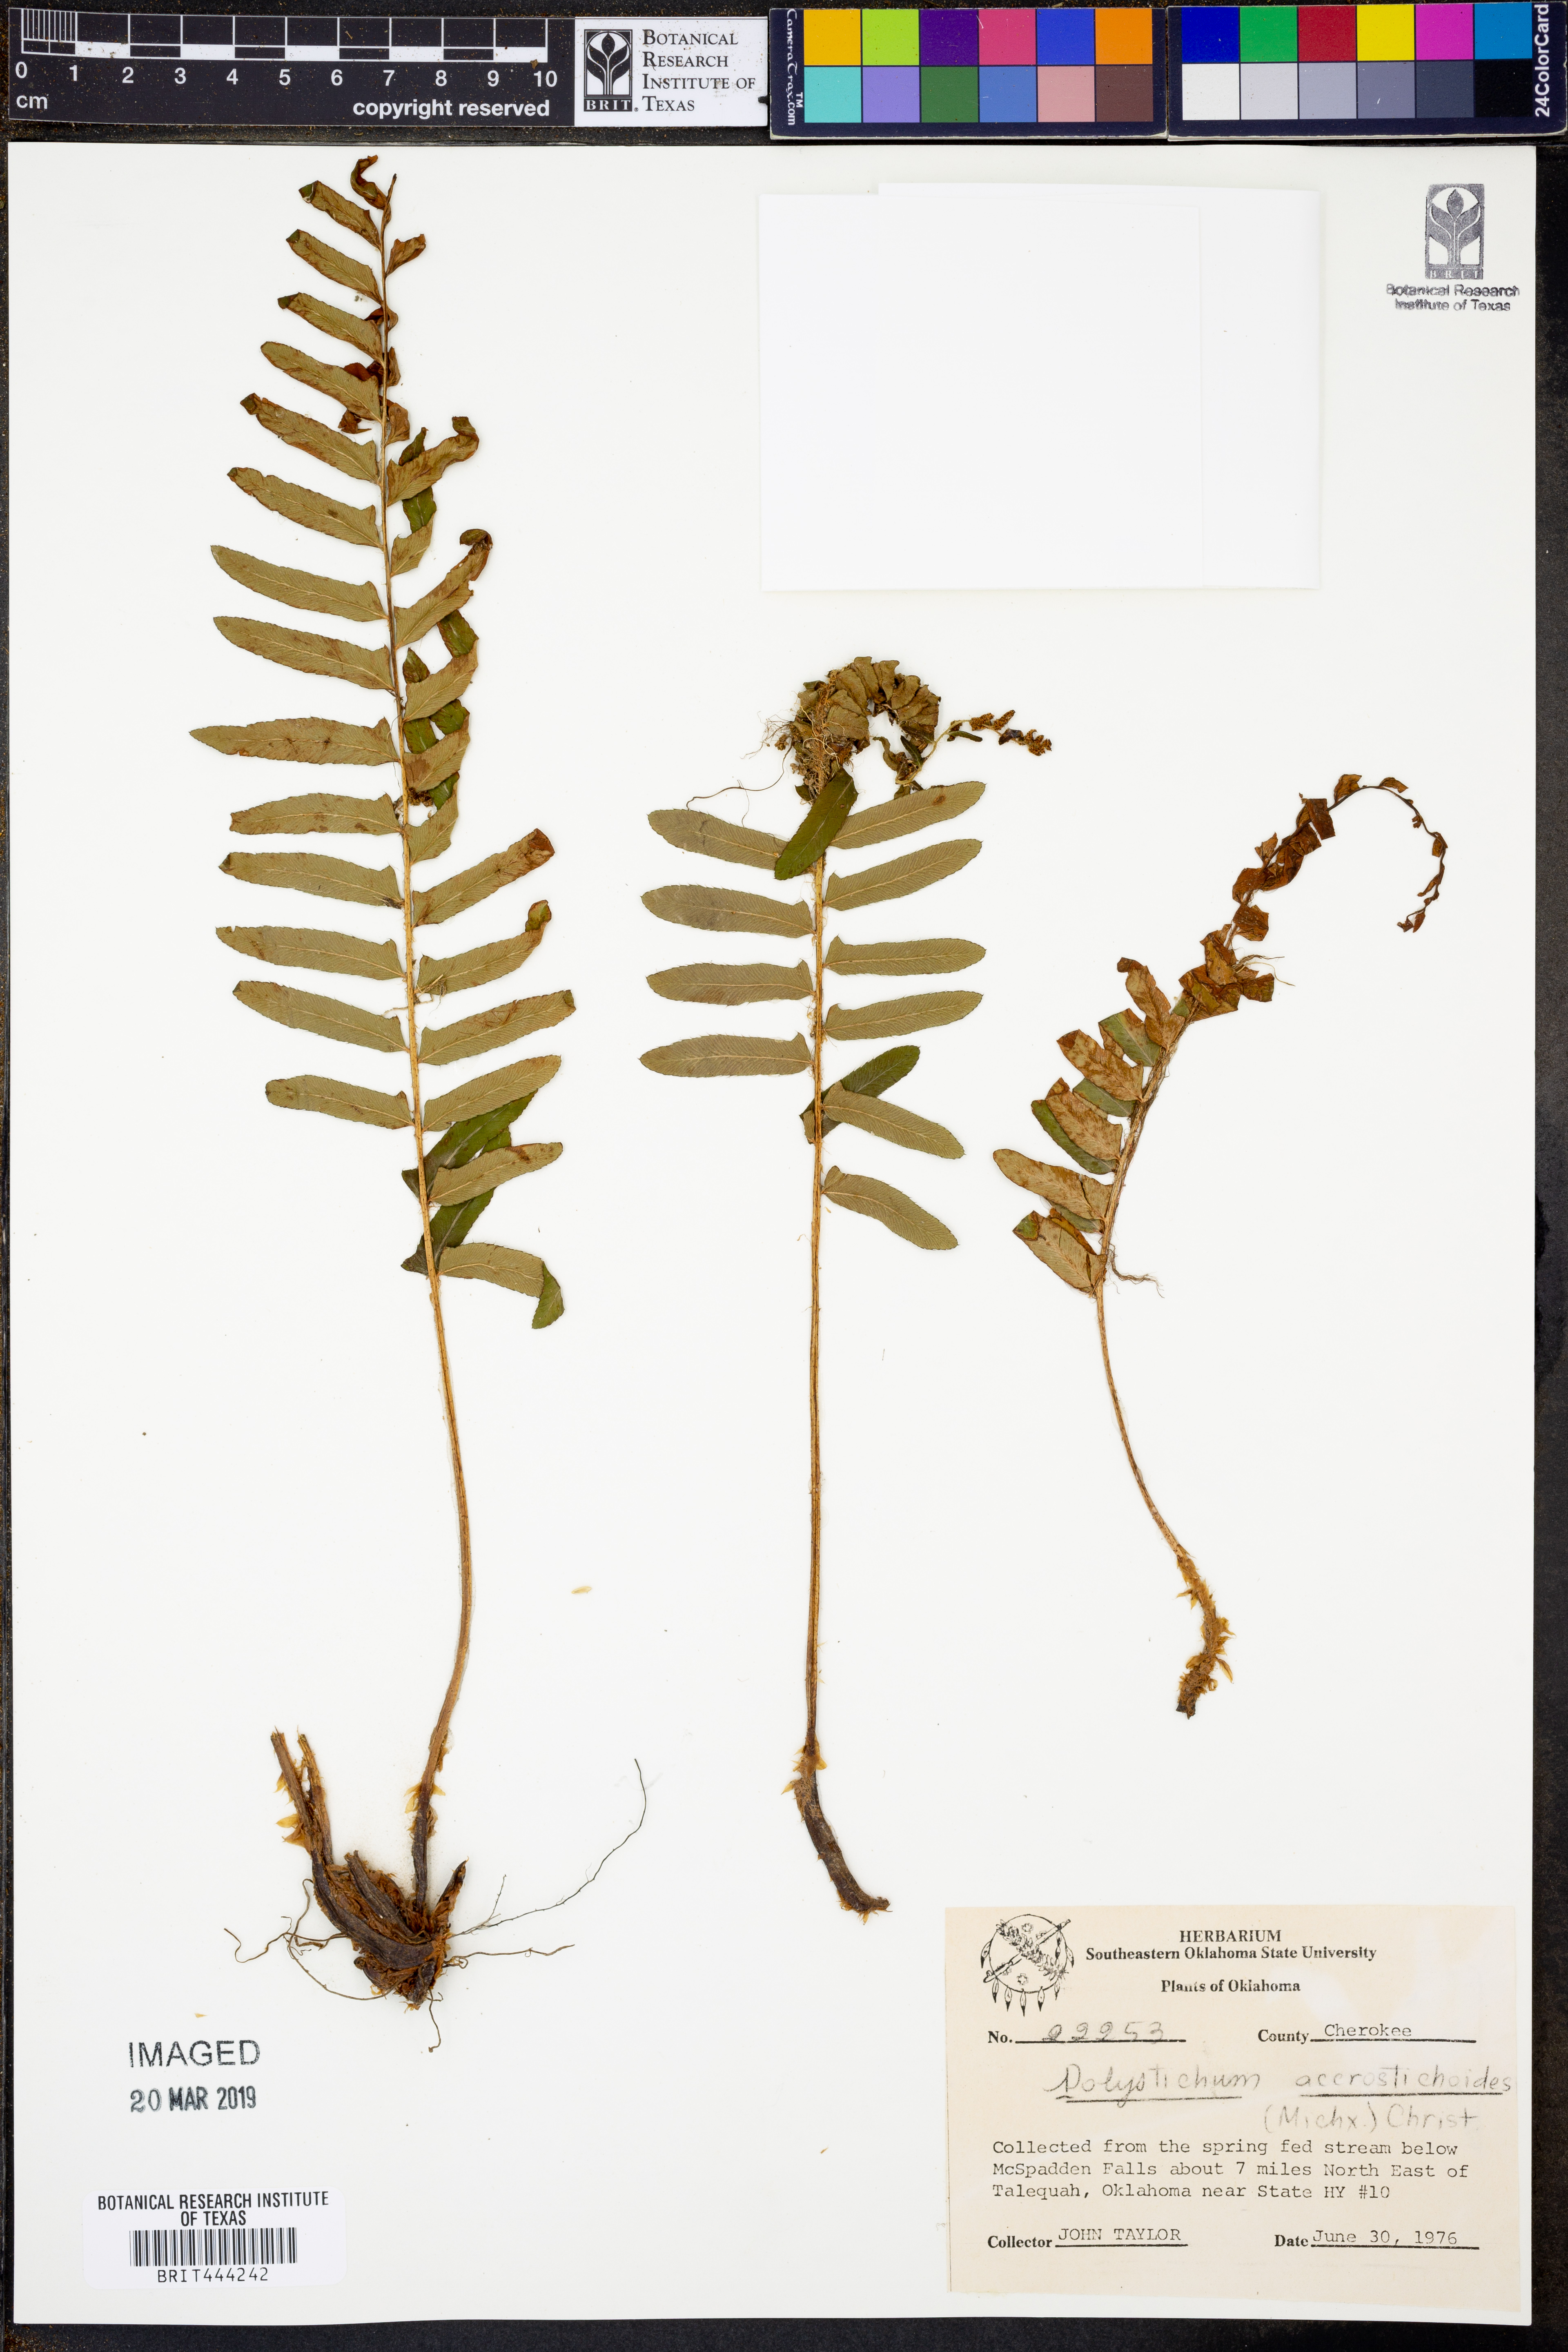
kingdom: Plantae
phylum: Tracheophyta
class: Polypodiopsida
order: Polypodiales
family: Dryopteridaceae
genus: Polystichum
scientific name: Polystichum acrostichoides
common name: Christmas fern
